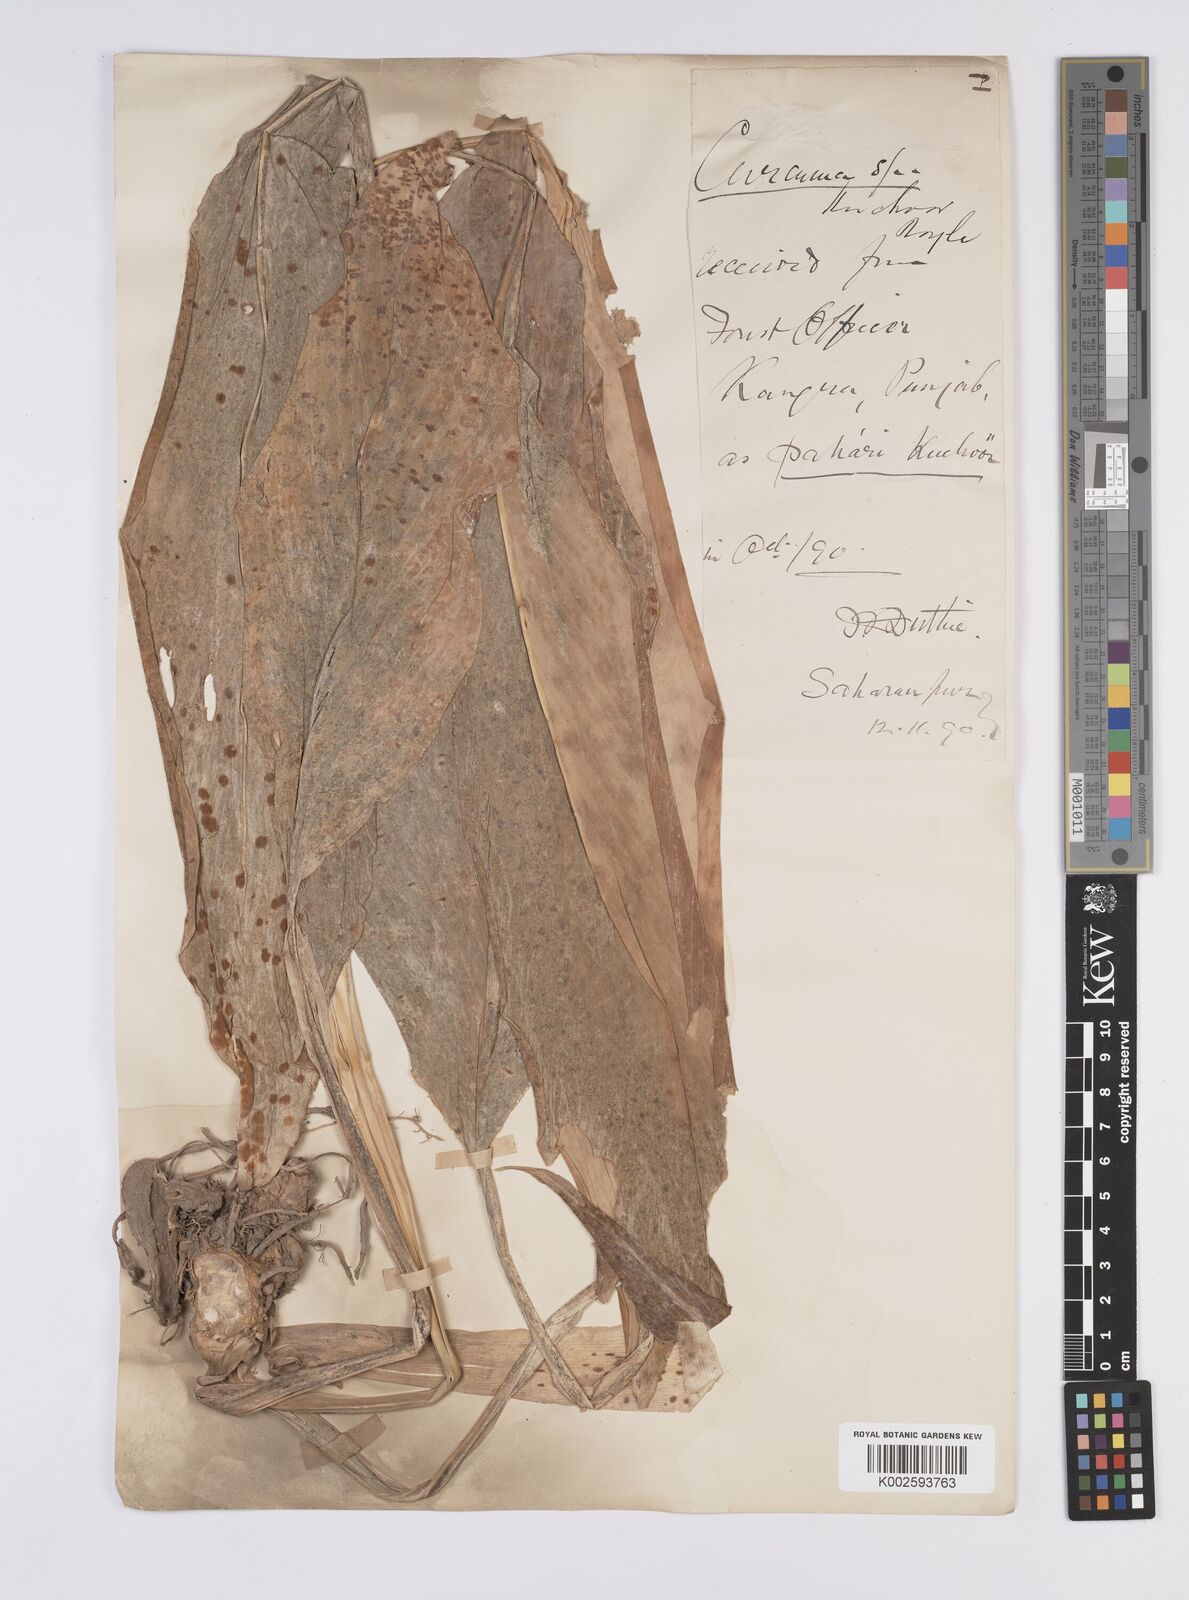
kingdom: Plantae
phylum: Tracheophyta
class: Liliopsida
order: Zingiberales
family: Zingiberaceae
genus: Curcuma
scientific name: Curcuma
